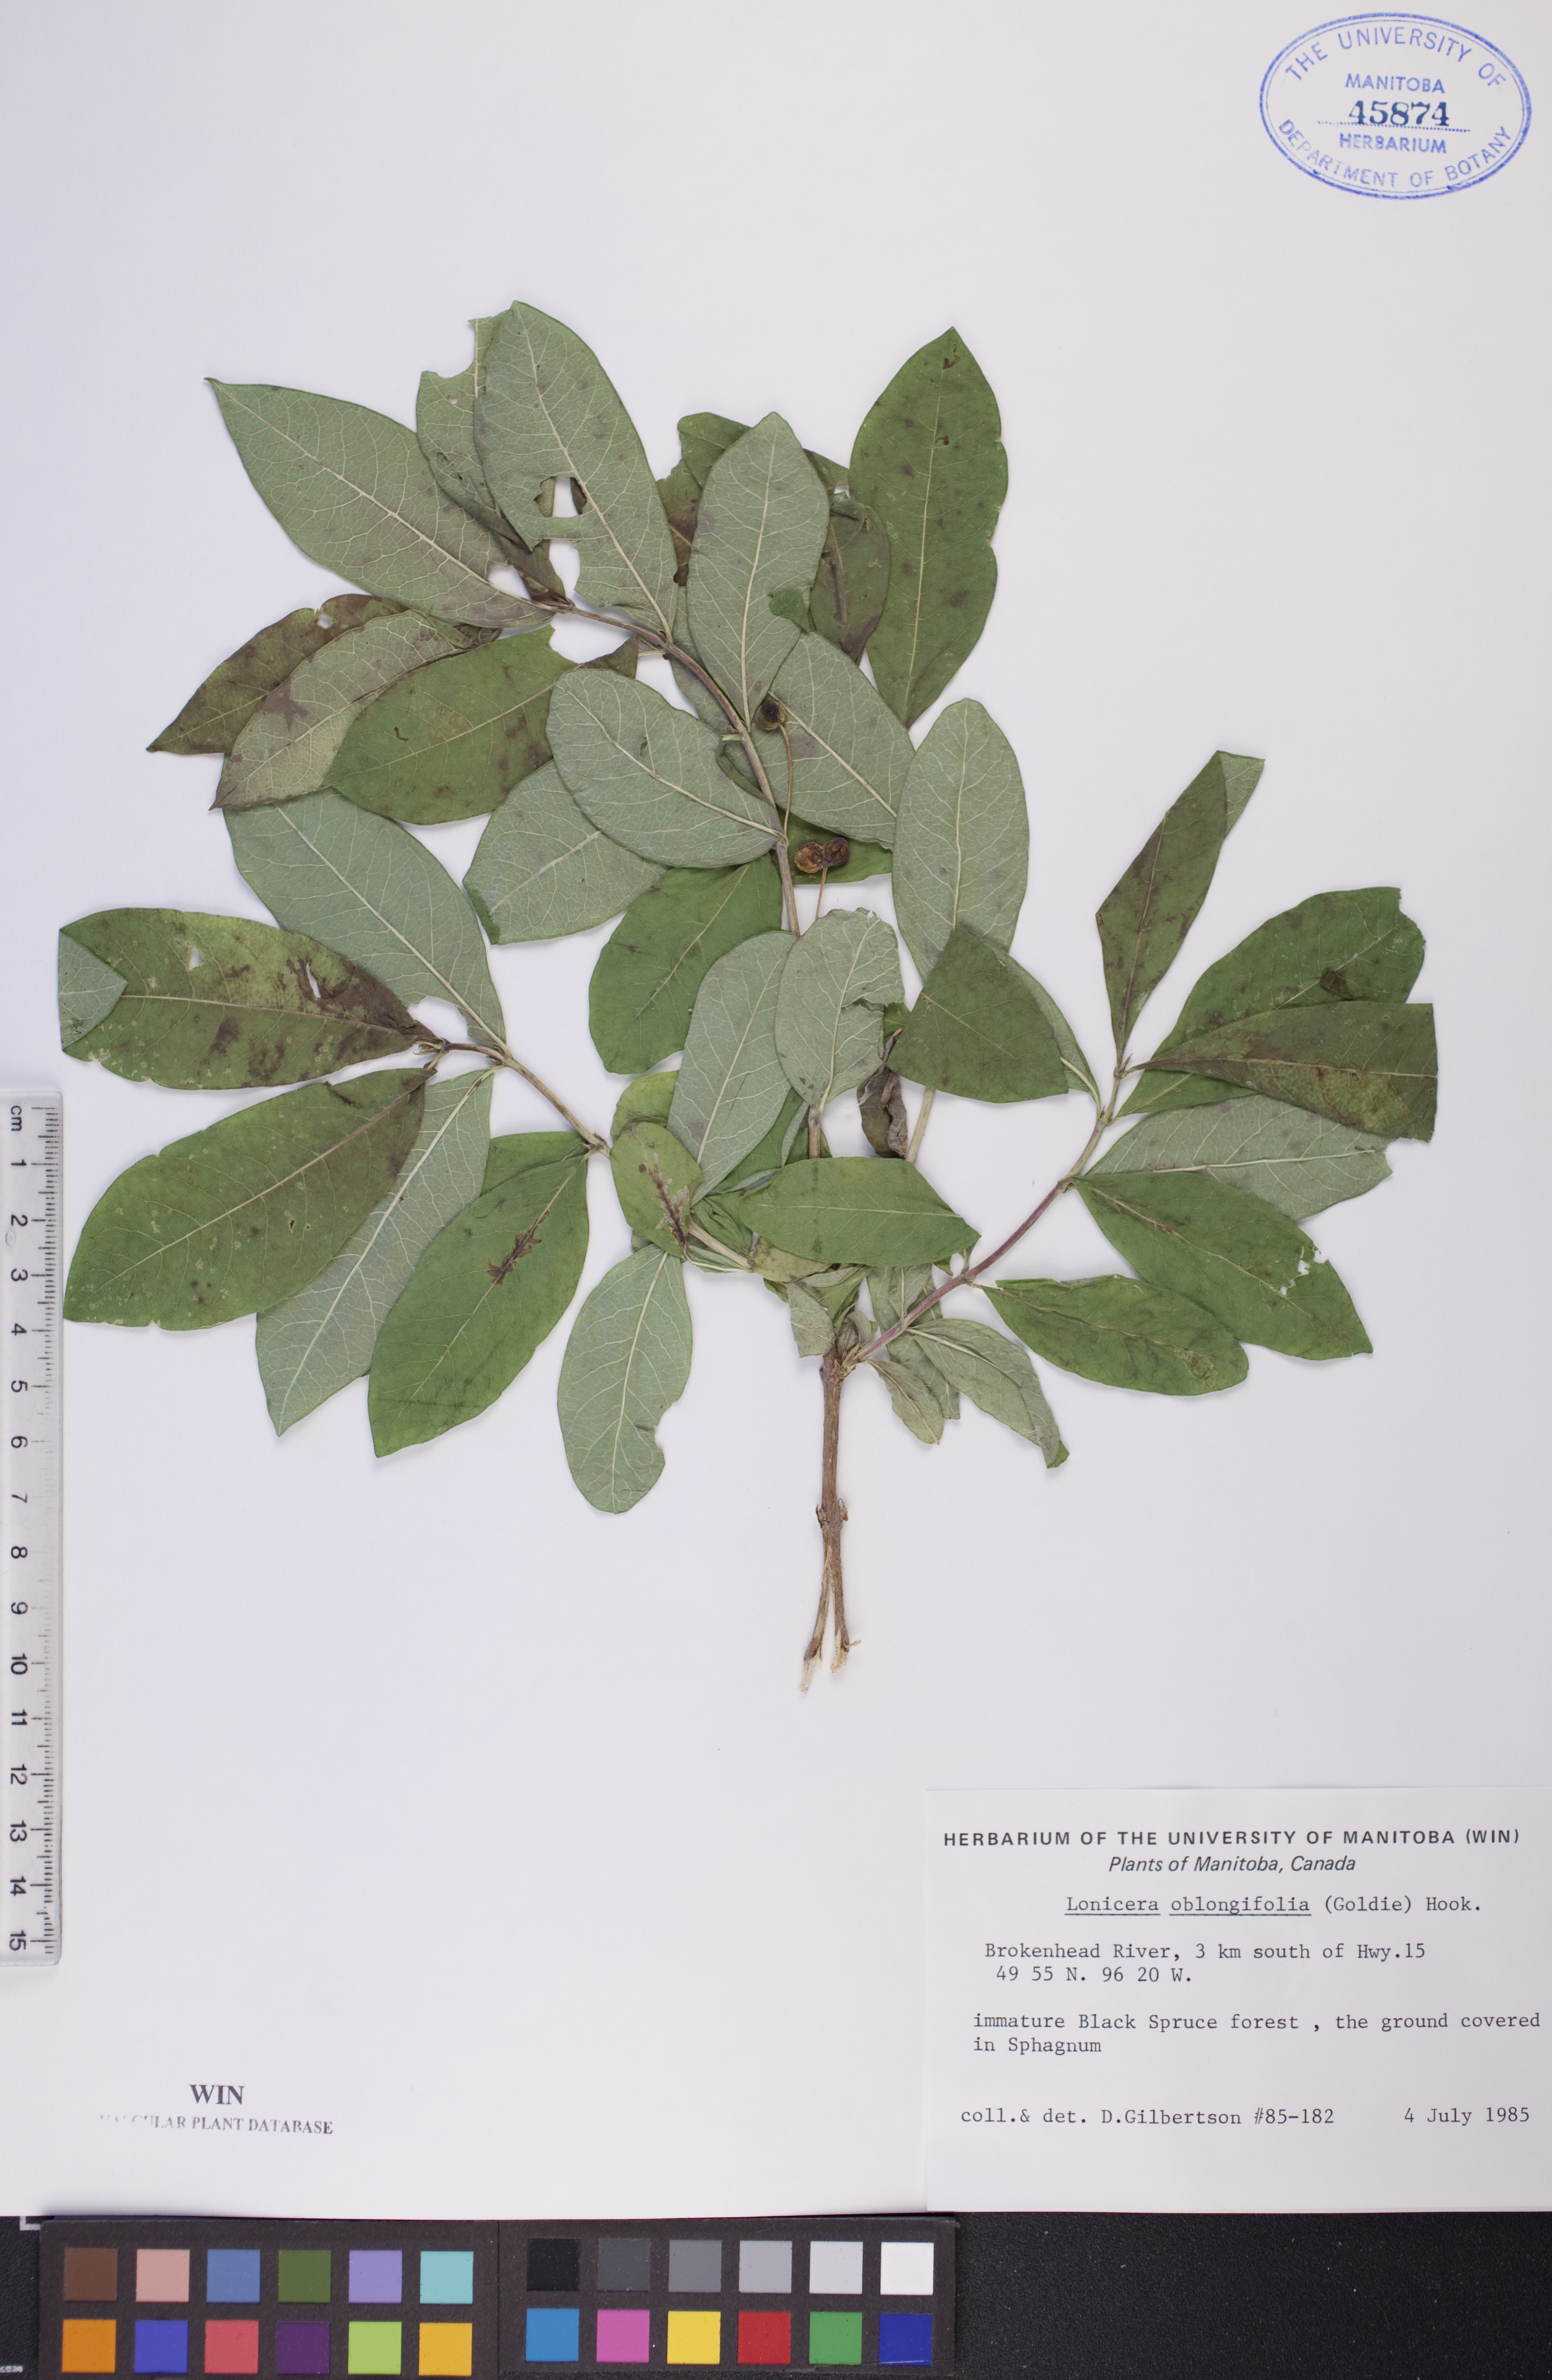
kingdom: Plantae
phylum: Tracheophyta
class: Magnoliopsida
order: Dipsacales
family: Caprifoliaceae
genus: Lonicera
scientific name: Lonicera oblongifolia
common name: Swamp fly honeysuckle
